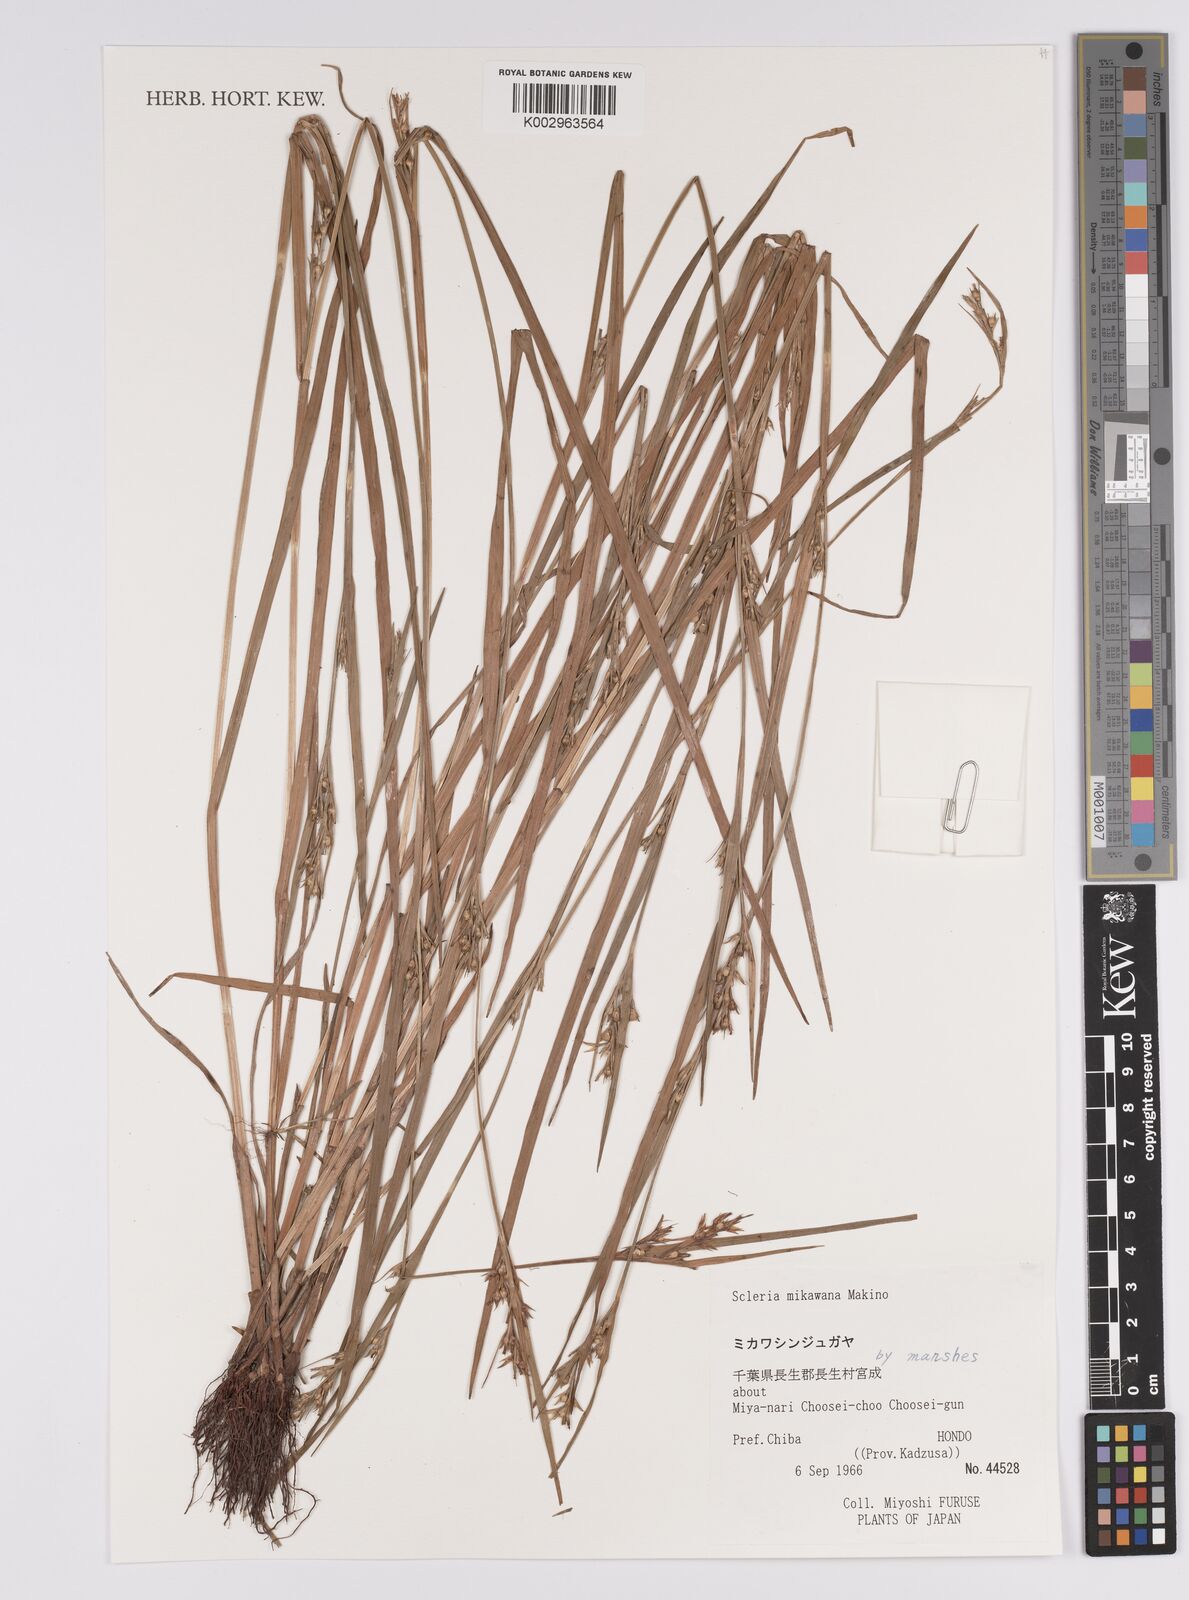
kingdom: Plantae
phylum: Tracheophyta
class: Liliopsida
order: Poales
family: Cyperaceae
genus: Scleria
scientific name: Scleria mikawana
